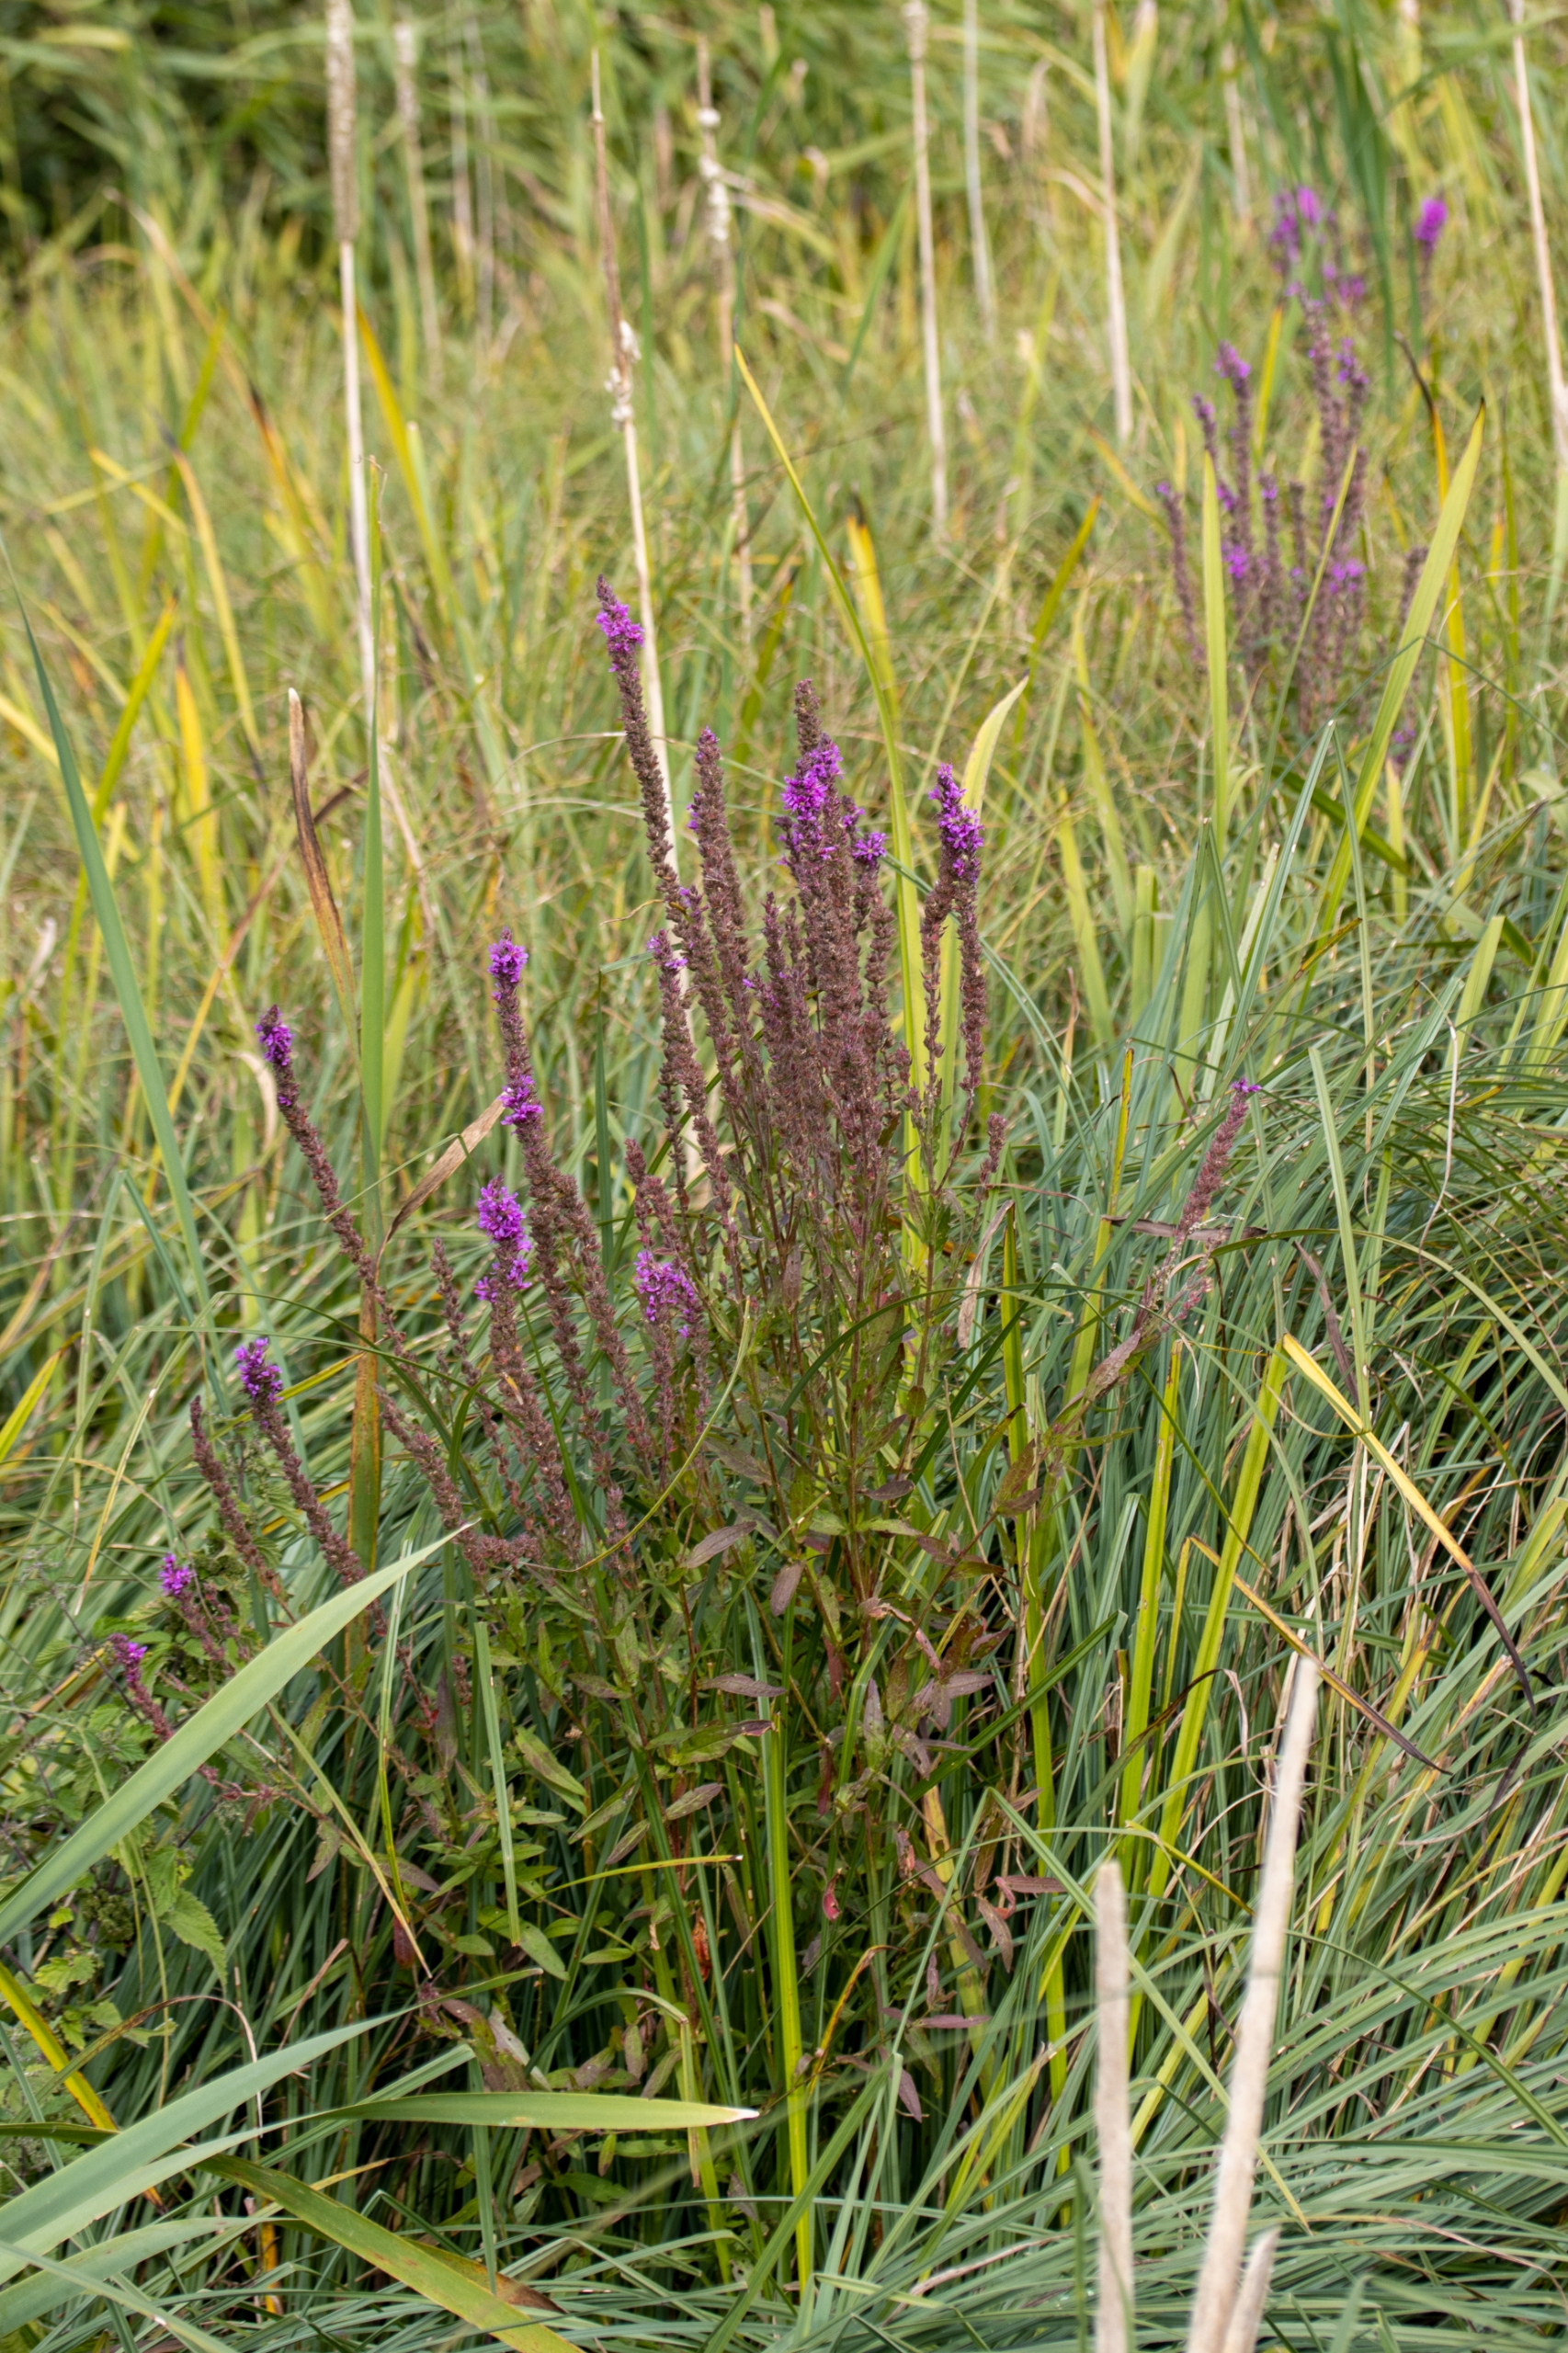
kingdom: Plantae
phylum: Tracheophyta
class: Magnoliopsida
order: Myrtales
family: Lythraceae
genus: Lythrum
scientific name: Lythrum salicaria
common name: Kattehale
